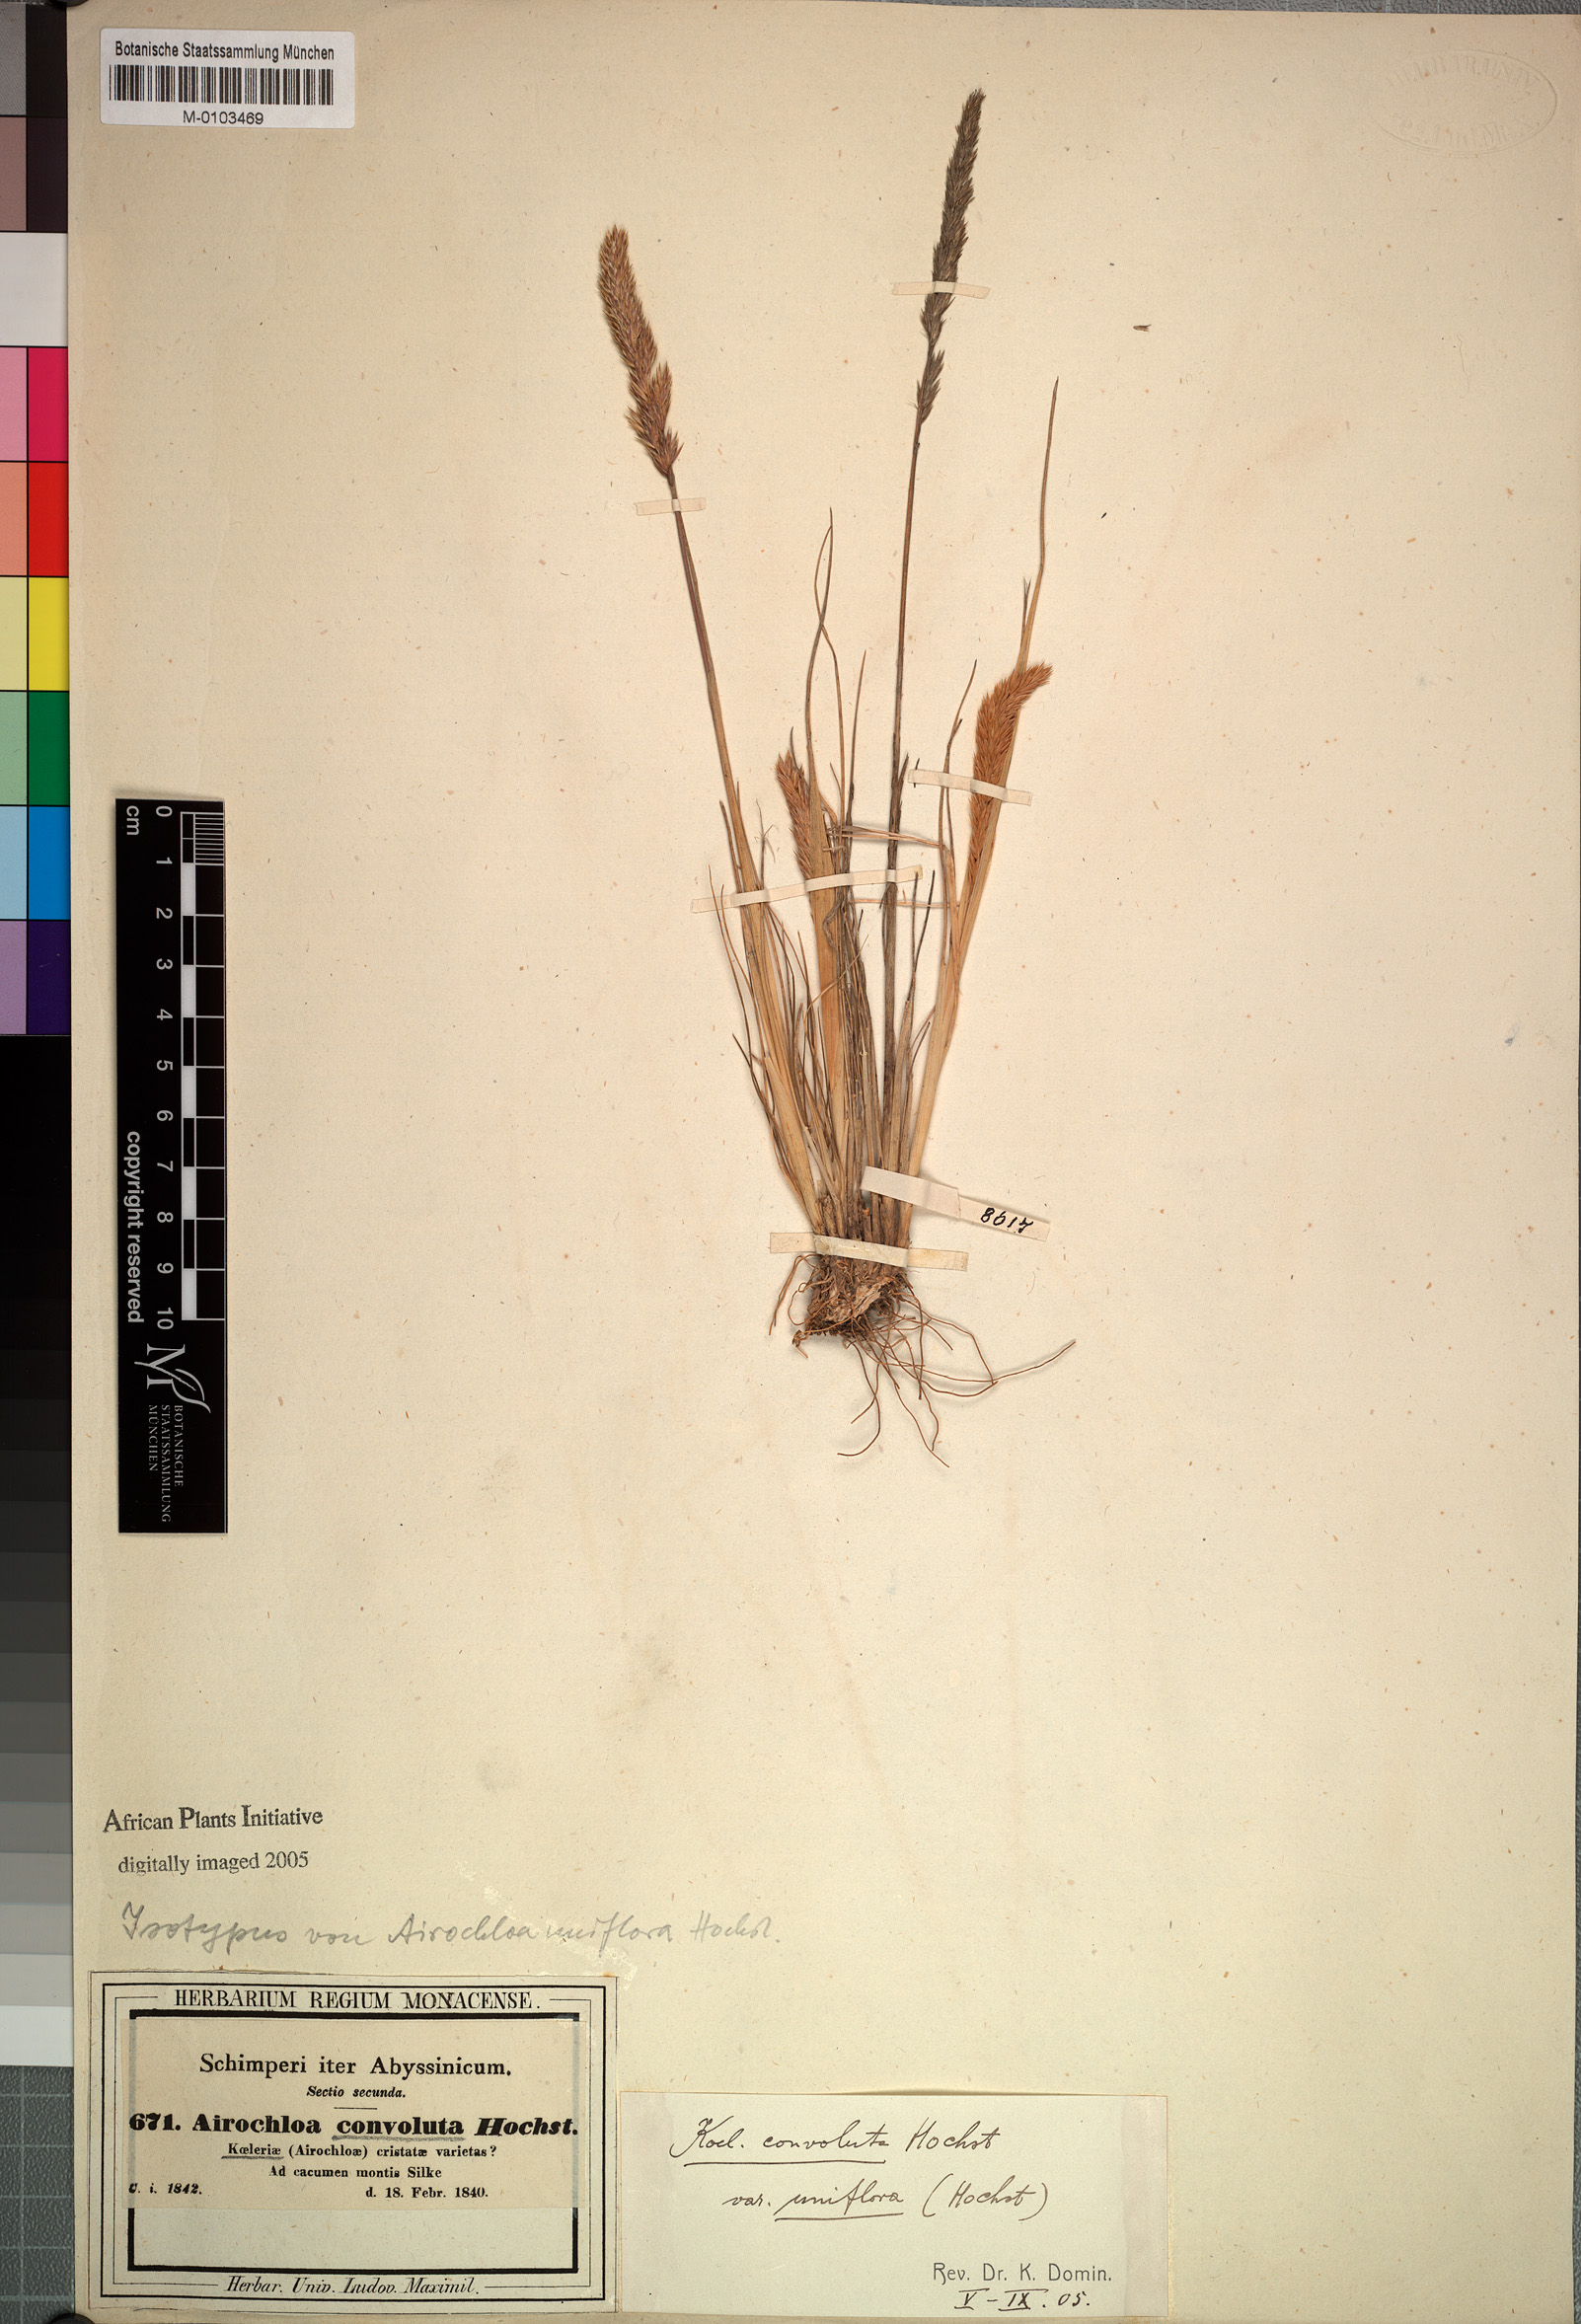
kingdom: Plantae
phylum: Tracheophyta
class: Liliopsida
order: Poales
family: Poaceae
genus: Koeleria
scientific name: Koeleria capensis
